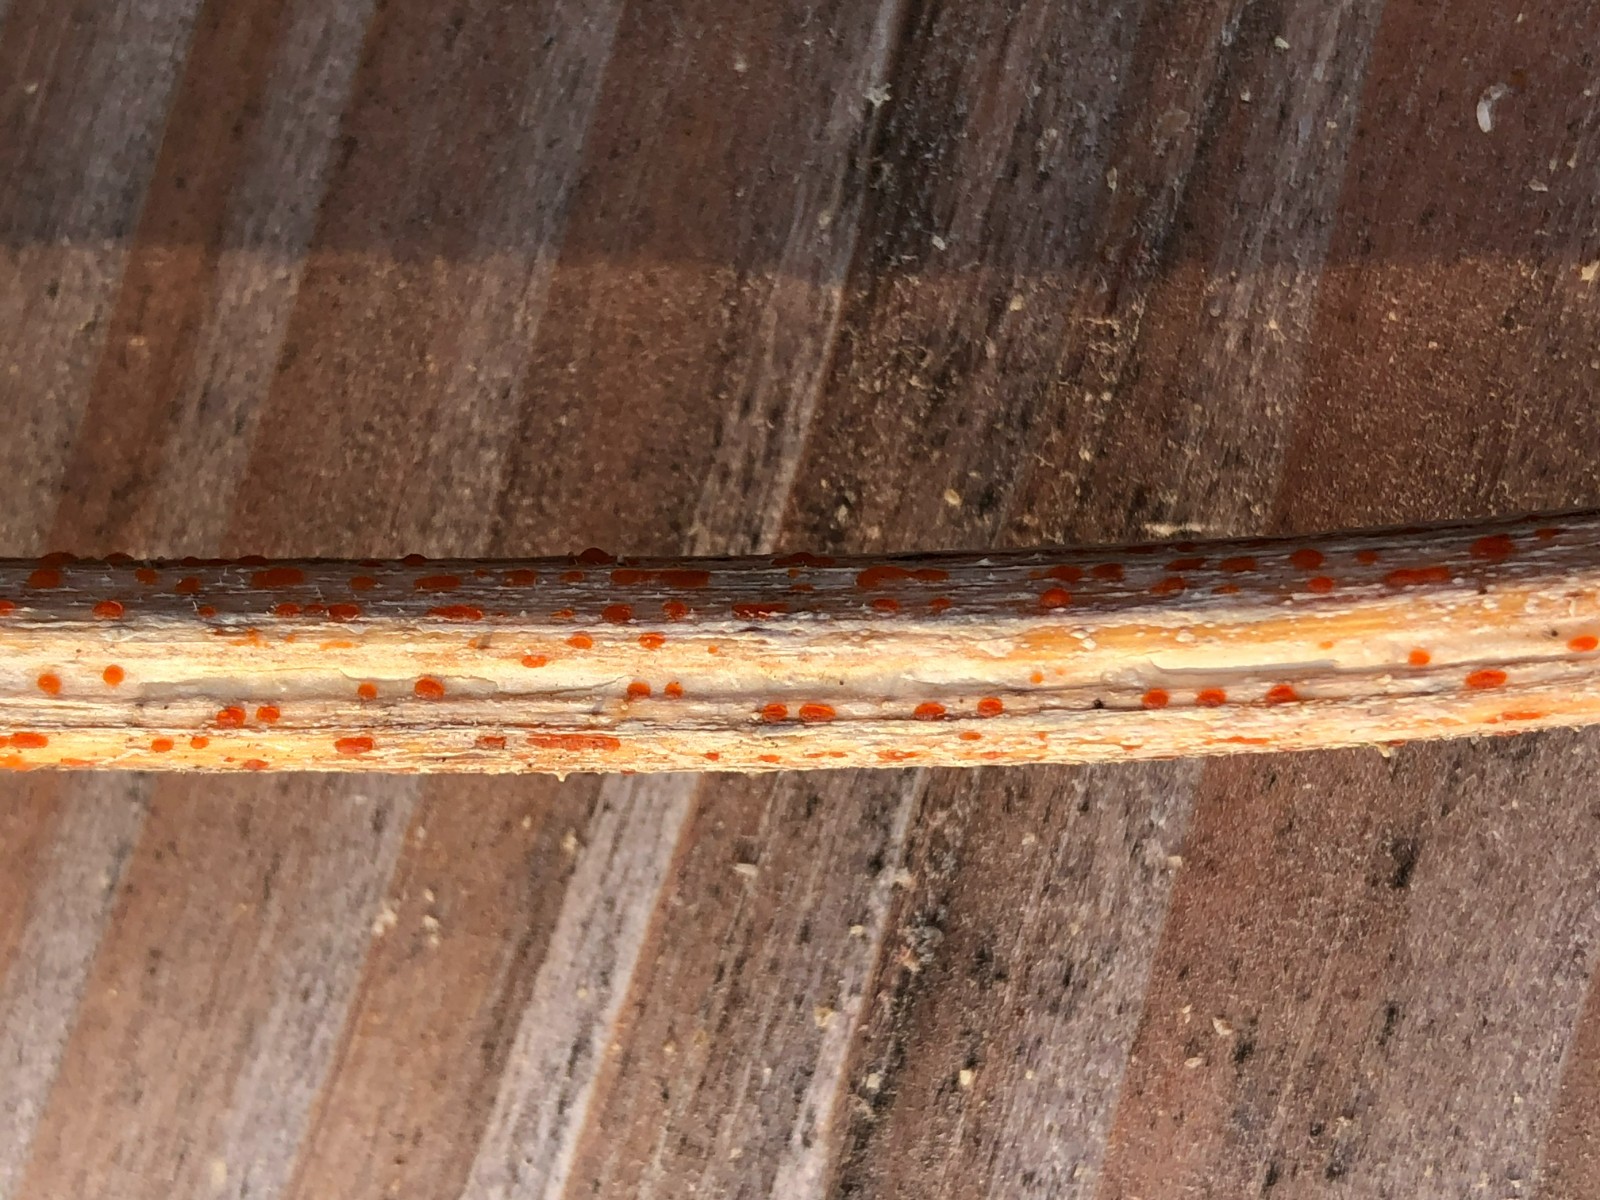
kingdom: Fungi
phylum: Ascomycota
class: Leotiomycetes
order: Helotiales
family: Calloriaceae
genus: Calloria
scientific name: Calloria urticae
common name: nælde-orangeskive
